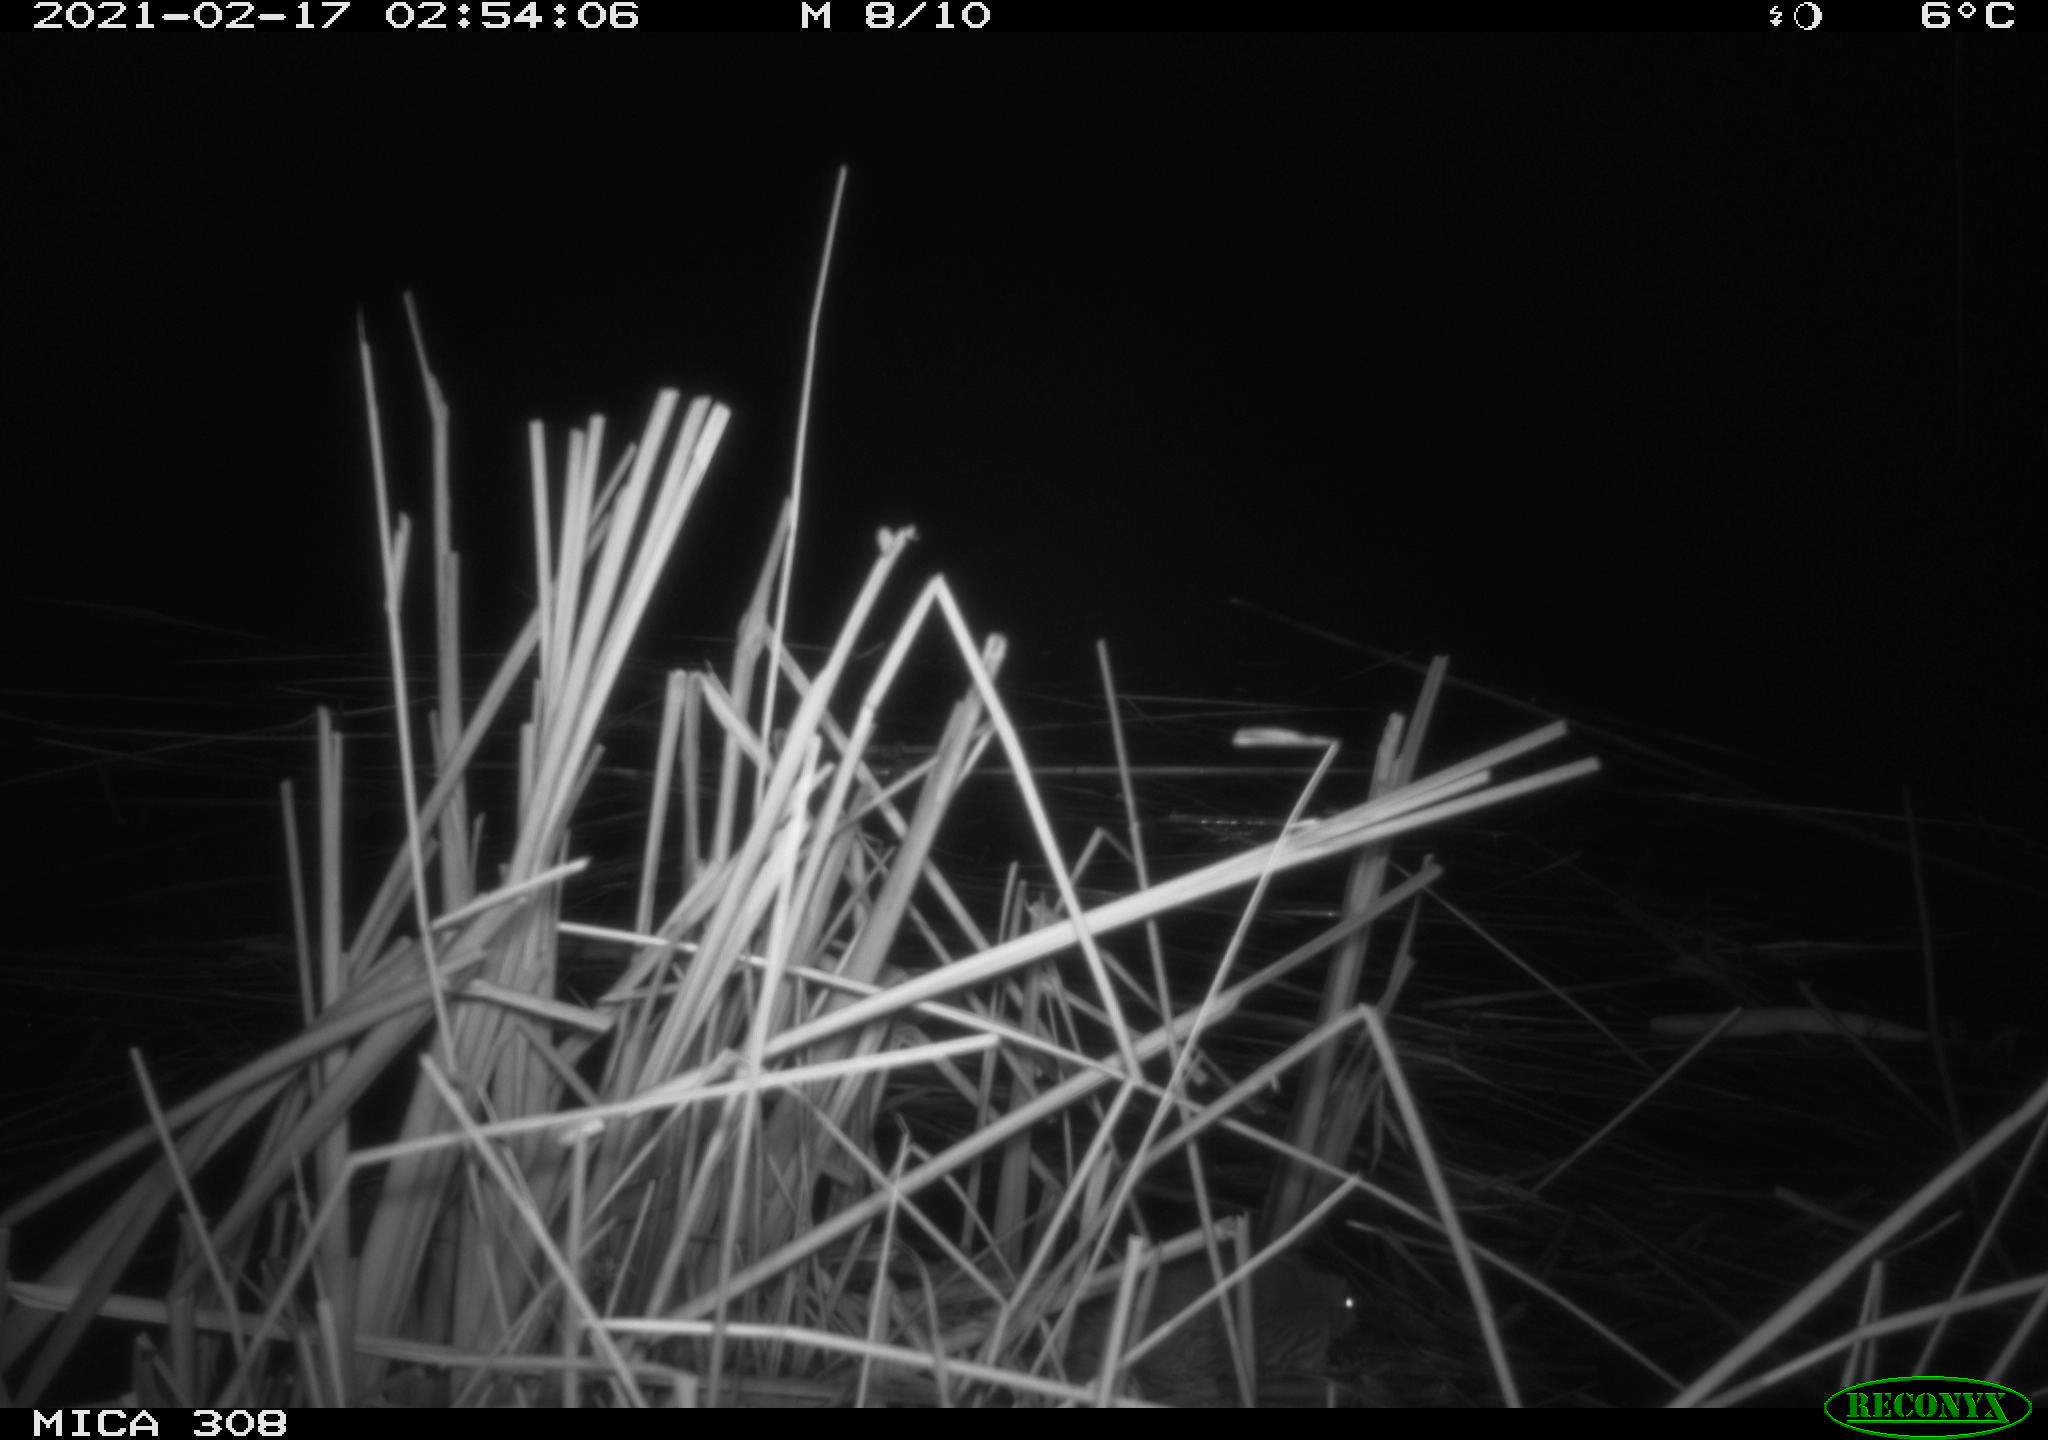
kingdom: Animalia
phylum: Chordata
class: Mammalia
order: Rodentia
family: Muridae
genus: Rattus
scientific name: Rattus norvegicus
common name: Brown rat
